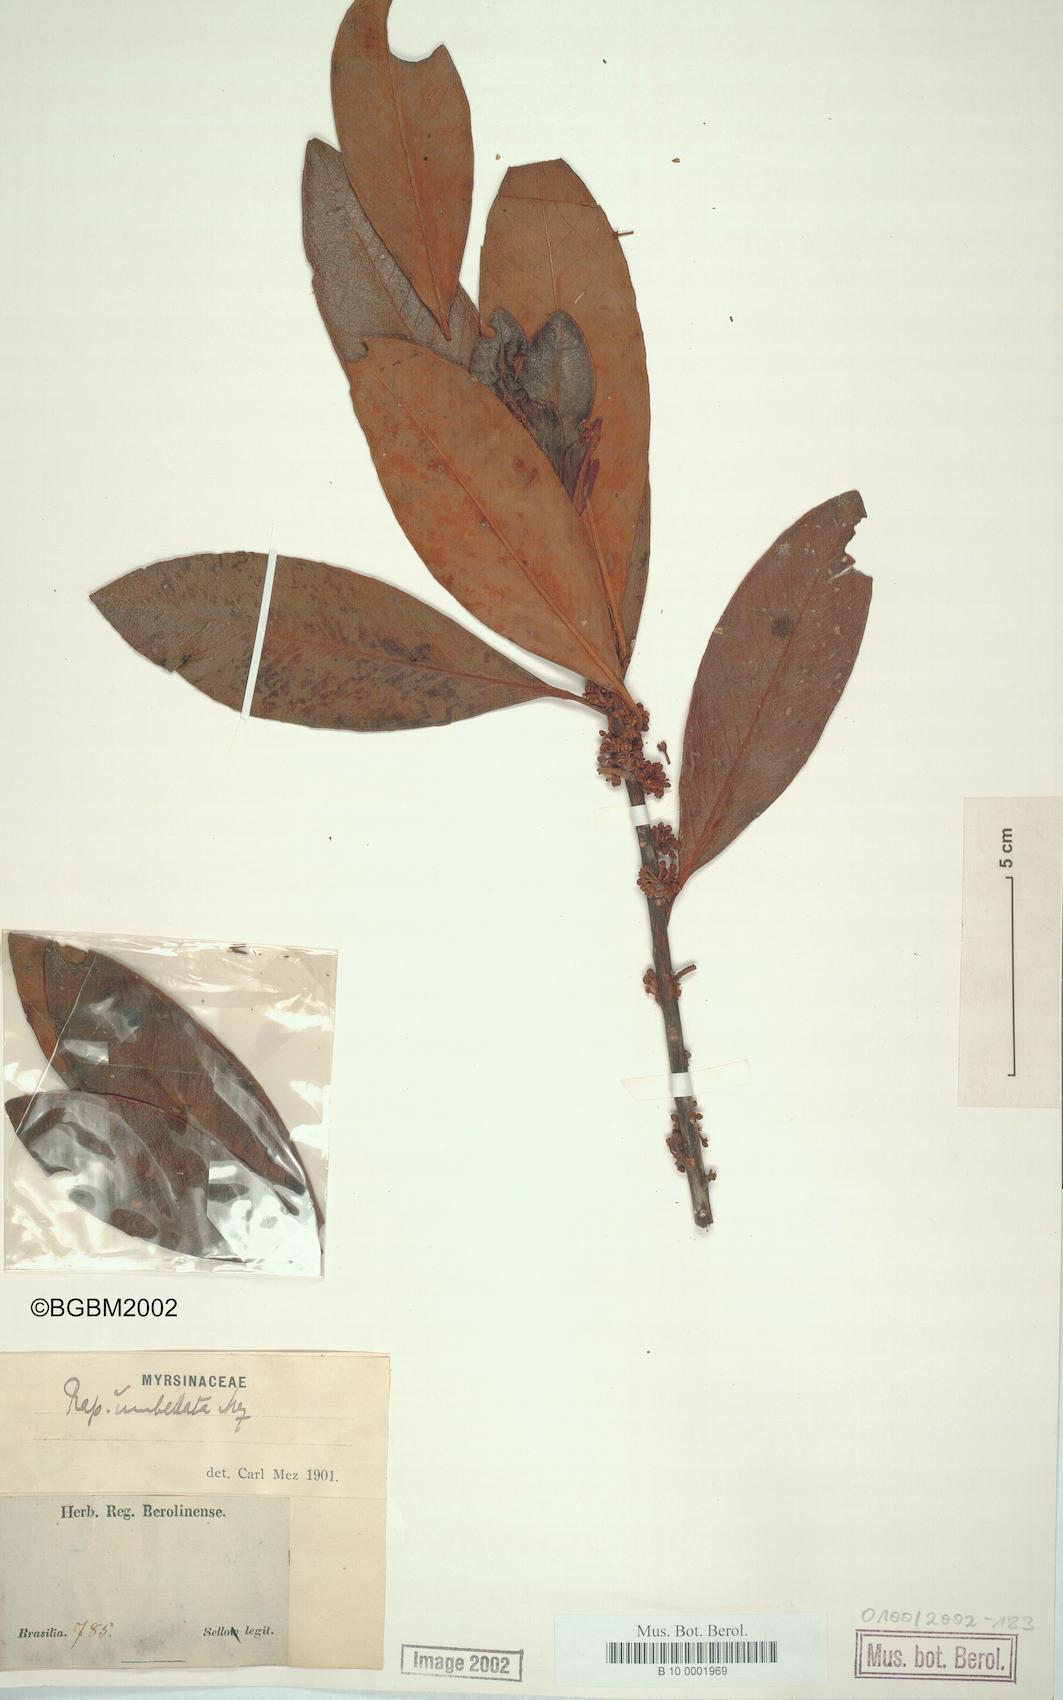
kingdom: Plantae
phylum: Tracheophyta
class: Magnoliopsida
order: Ericales
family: Primulaceae
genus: Myrsine
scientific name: Myrsine umbellata
